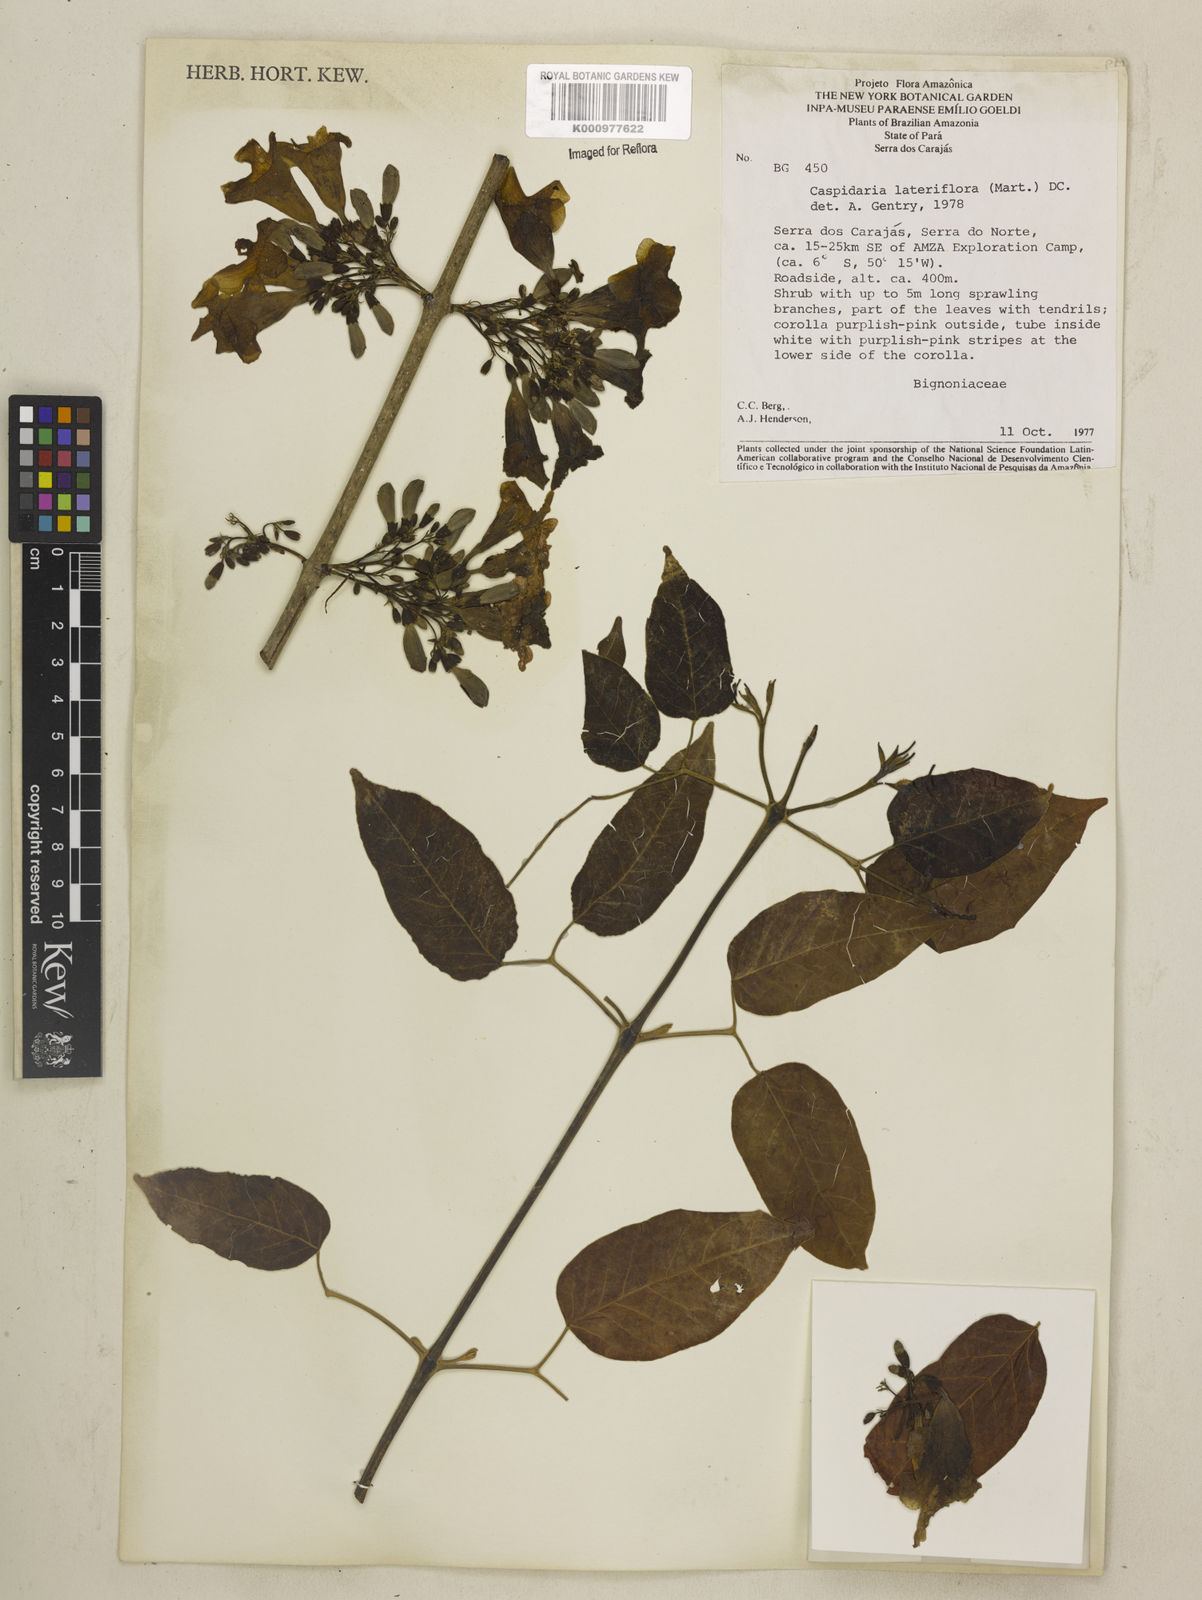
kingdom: Plantae
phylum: Tracheophyta
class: Magnoliopsida
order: Lamiales
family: Bignoniaceae
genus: Cuspidaria
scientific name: Cuspidaria lateriflora
